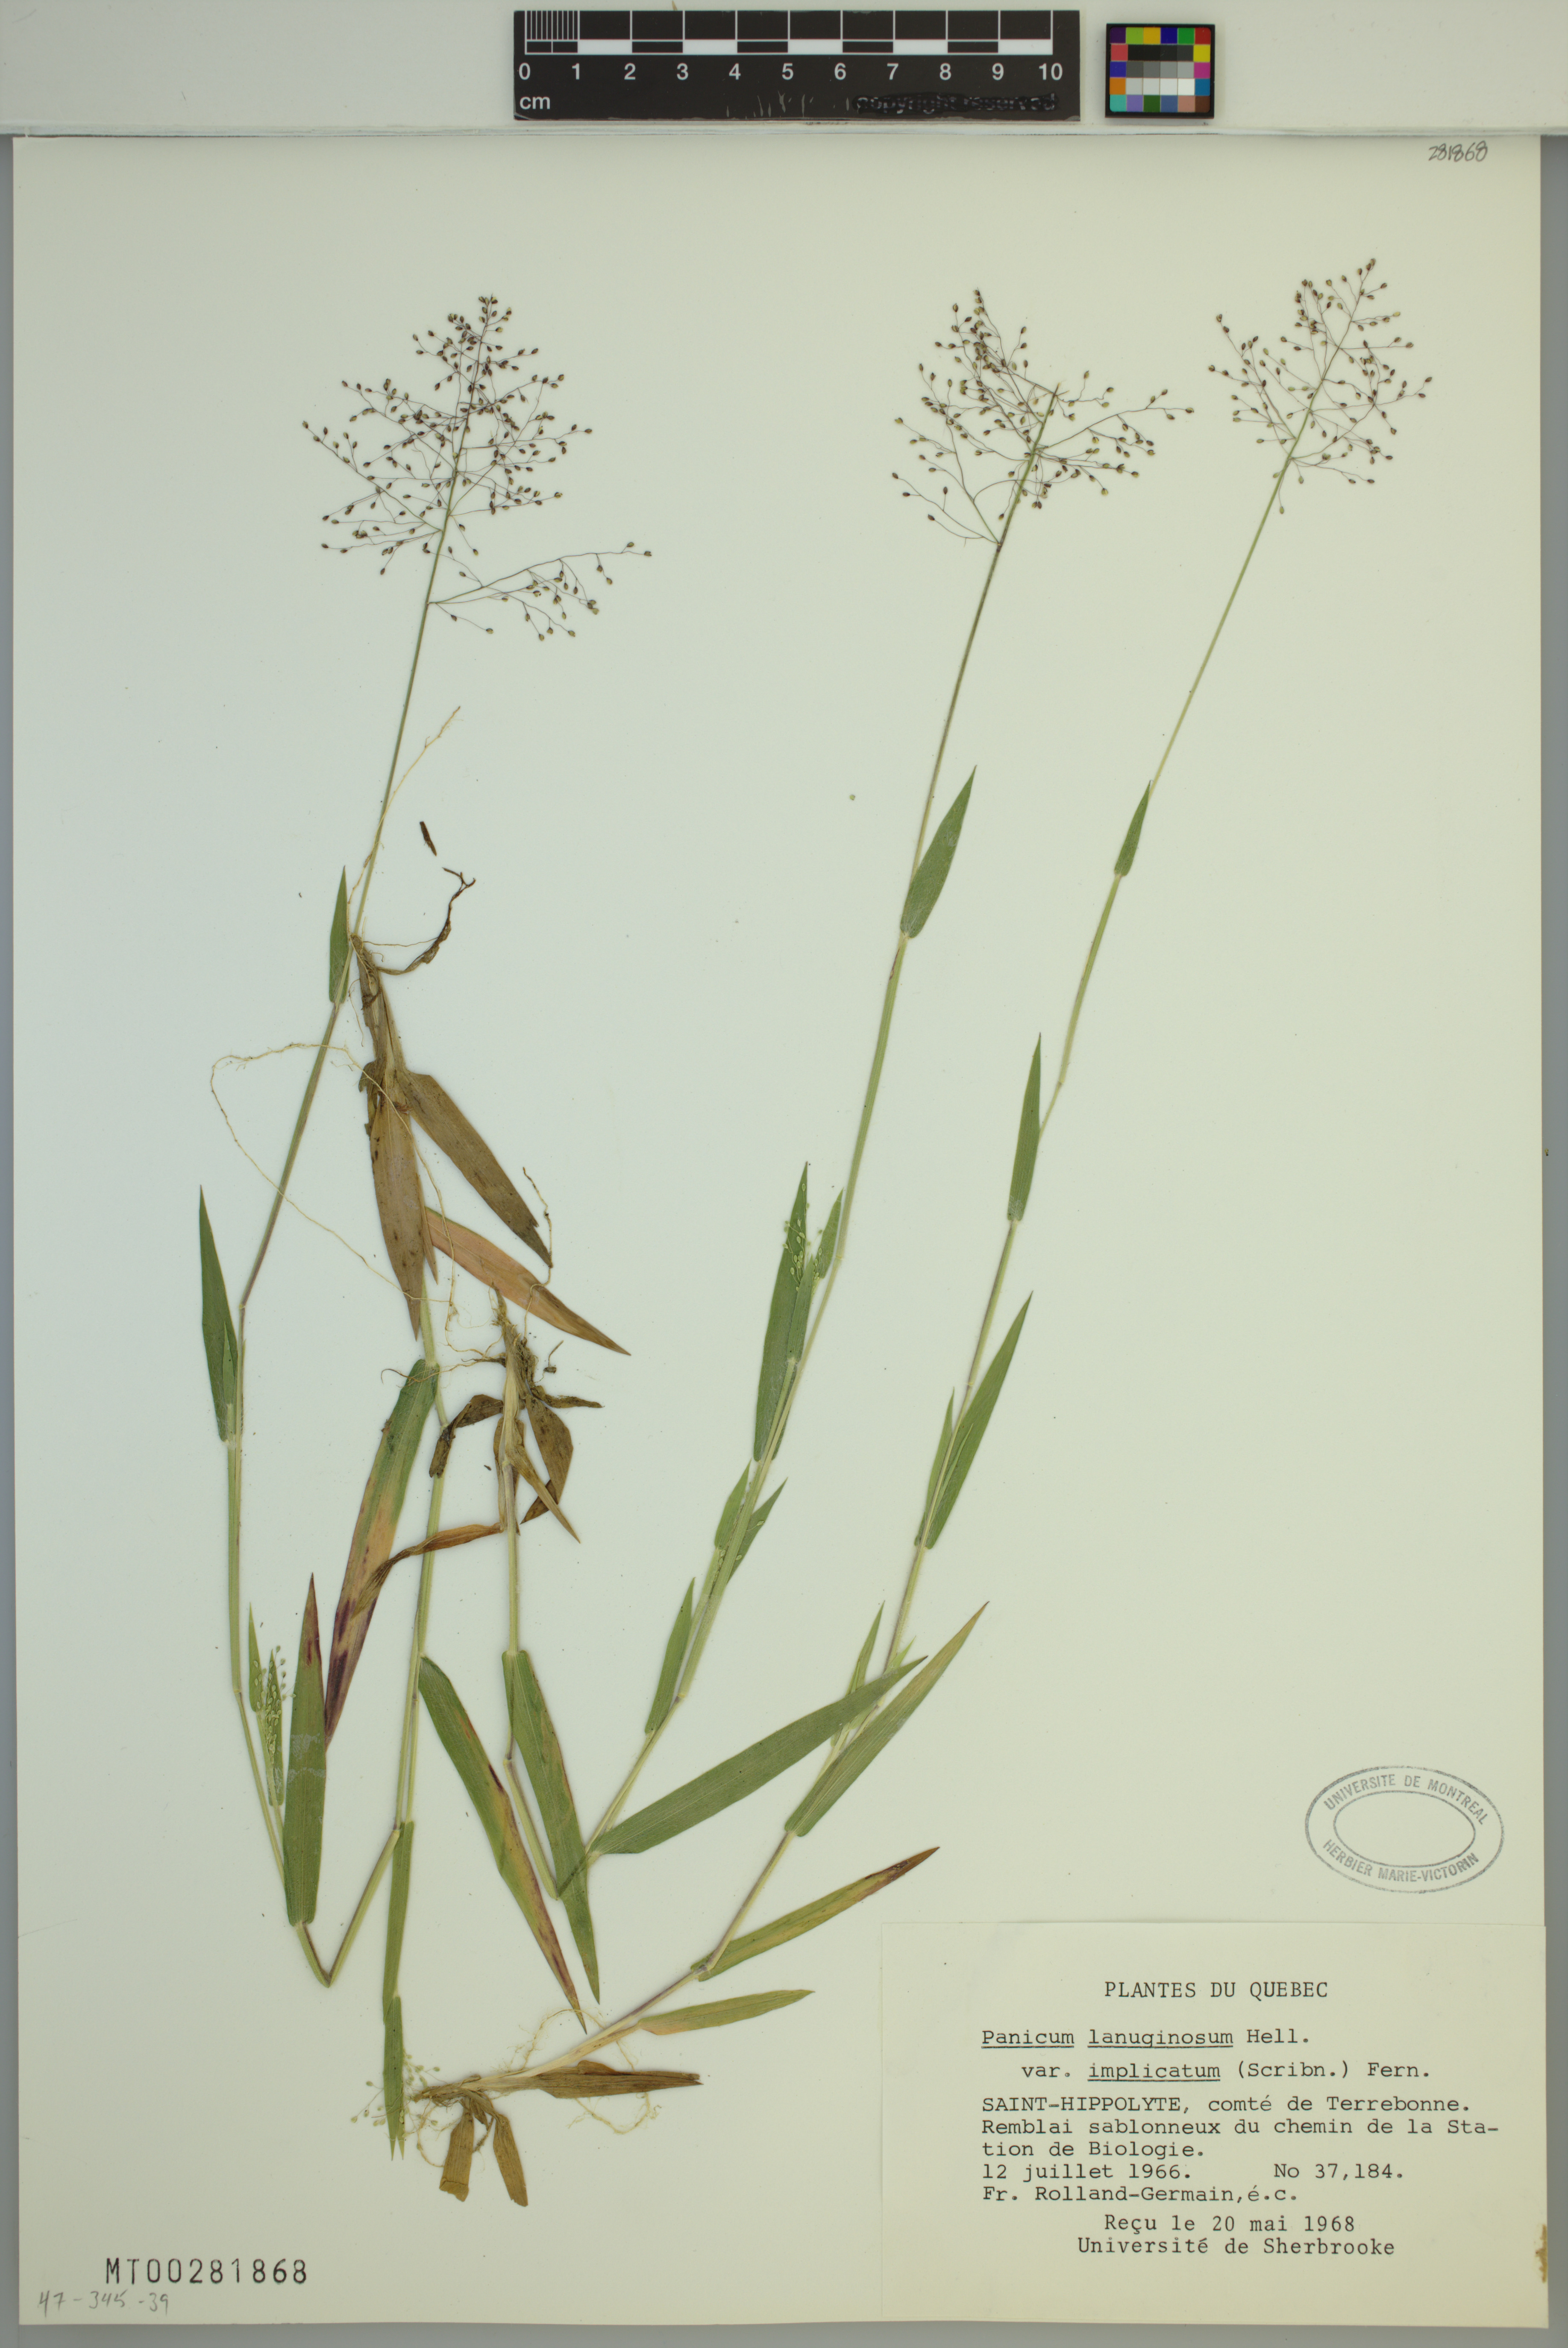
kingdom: Plantae
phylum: Tracheophyta
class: Liliopsida
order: Poales
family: Poaceae
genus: Dichanthelium
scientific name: Dichanthelium implicatum
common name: Slender-stemmed panicgrass
